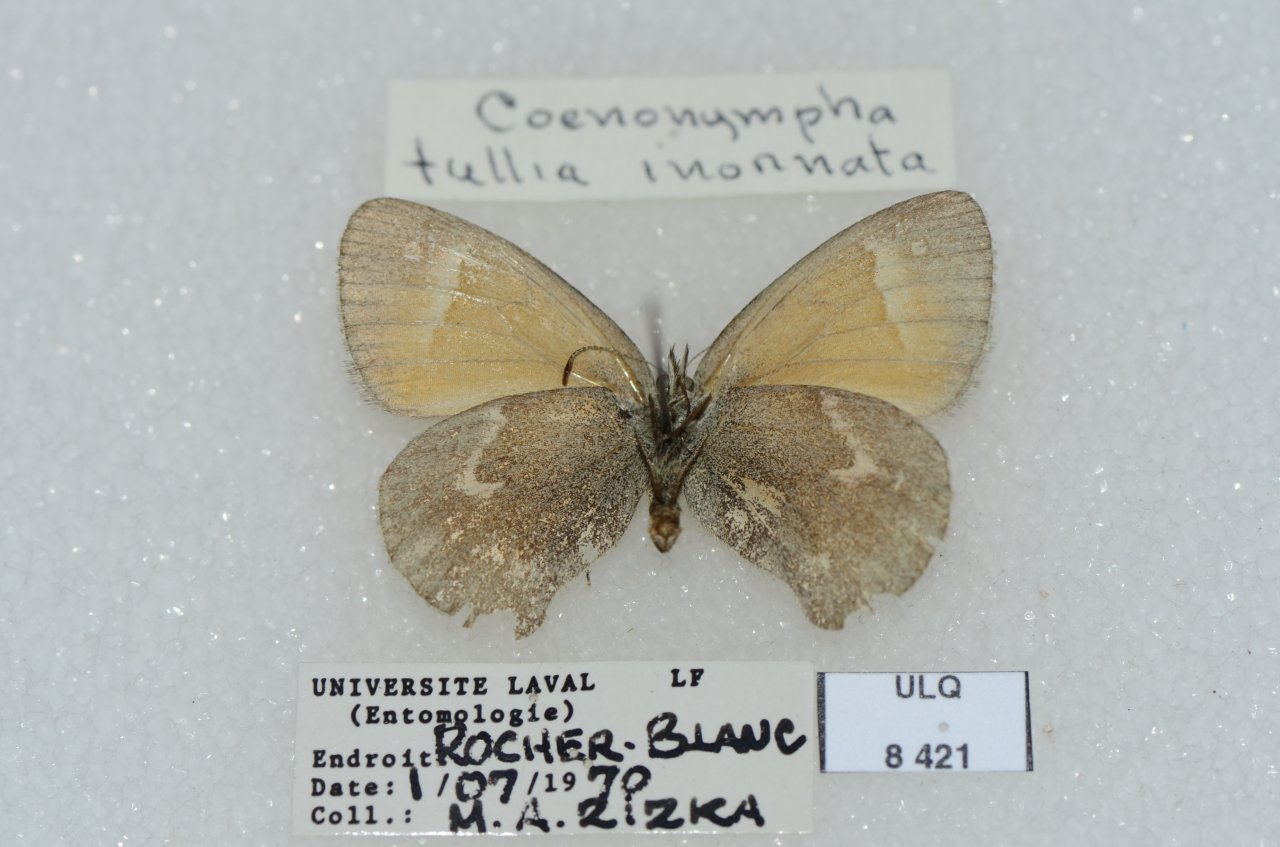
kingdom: Animalia
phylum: Arthropoda
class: Insecta
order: Lepidoptera
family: Nymphalidae
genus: Coenonympha
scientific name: Coenonympha tullia
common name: Large Heath
